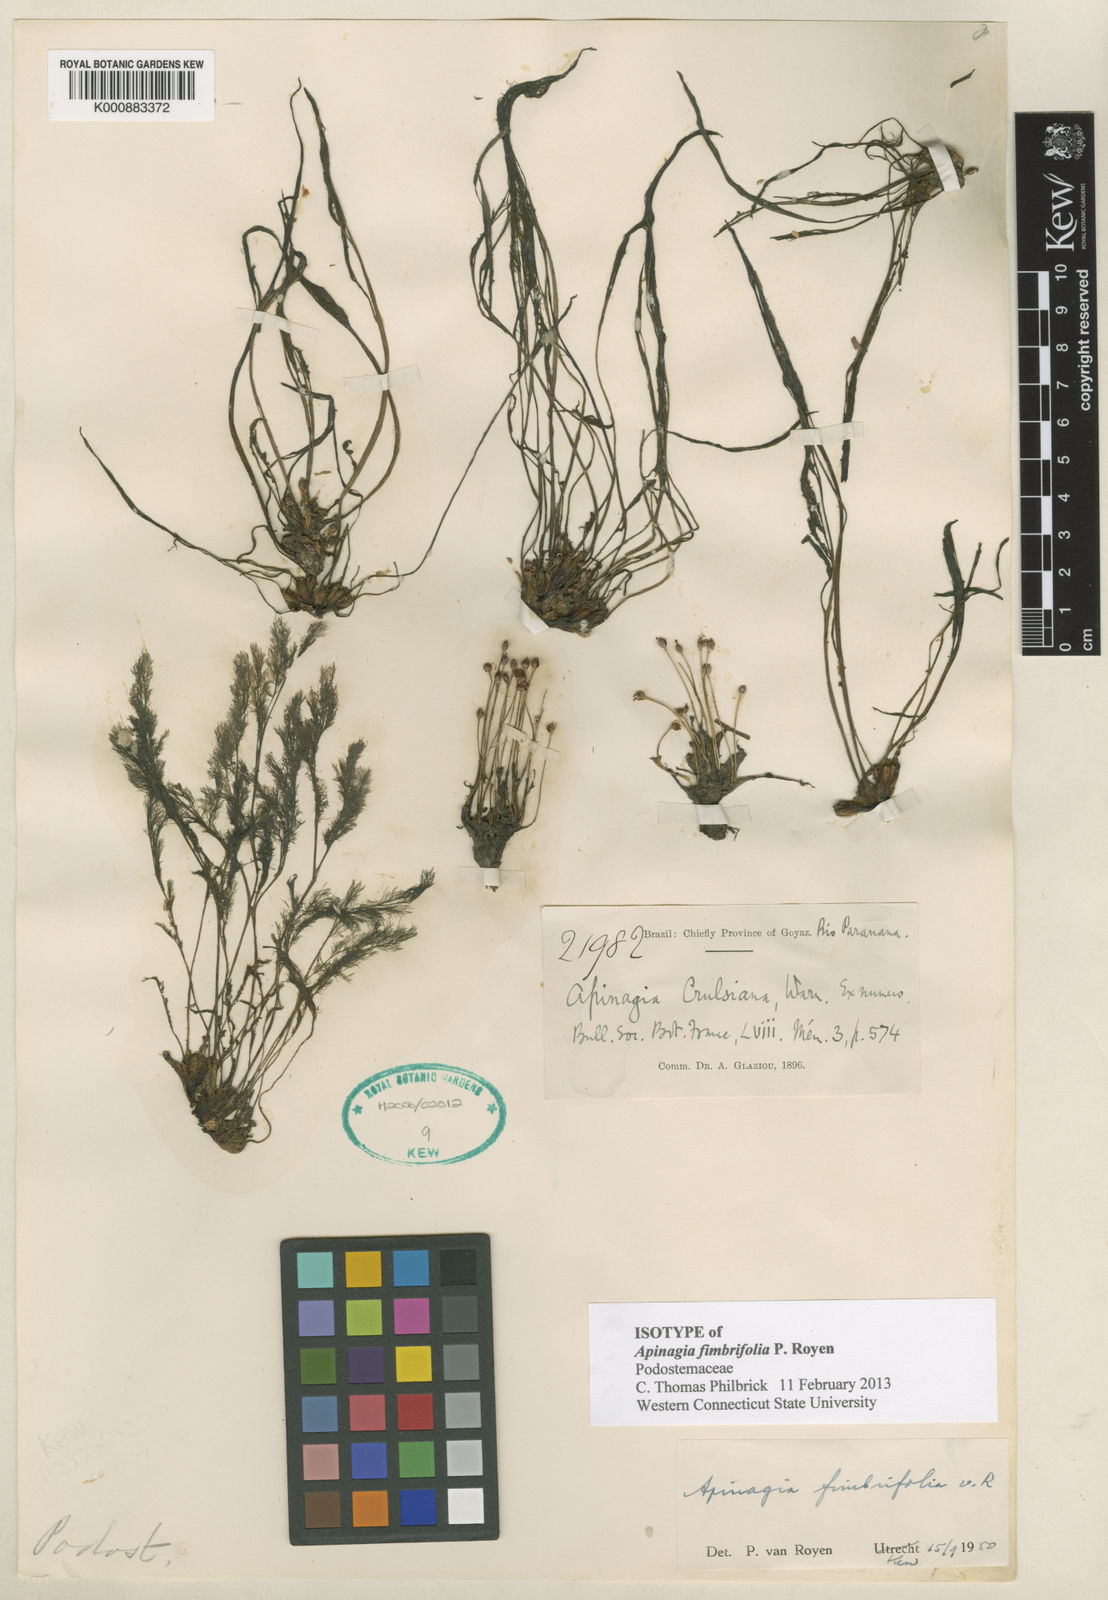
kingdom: Plantae
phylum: Tracheophyta
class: Magnoliopsida
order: Malpighiales
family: Podostemaceae
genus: Lophogyne
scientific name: Lophogyne fimbrifolia
